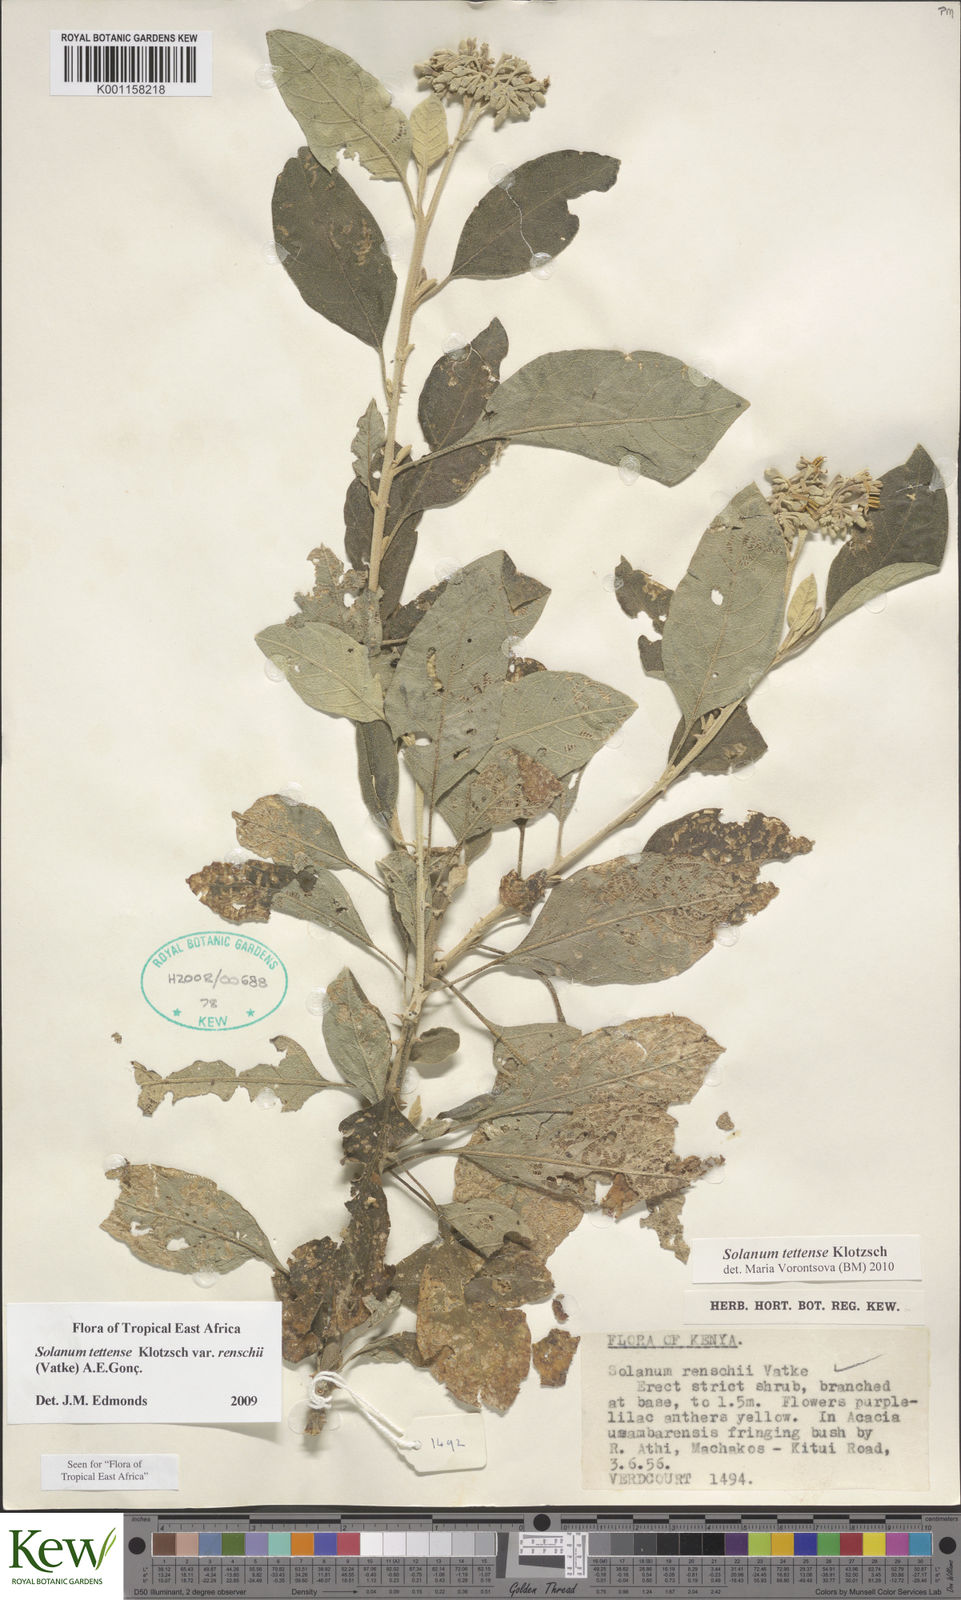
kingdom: Plantae
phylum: Tracheophyta
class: Magnoliopsida
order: Solanales
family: Solanaceae
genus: Solanum
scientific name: Solanum tettense
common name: Mozambique bitter apple
